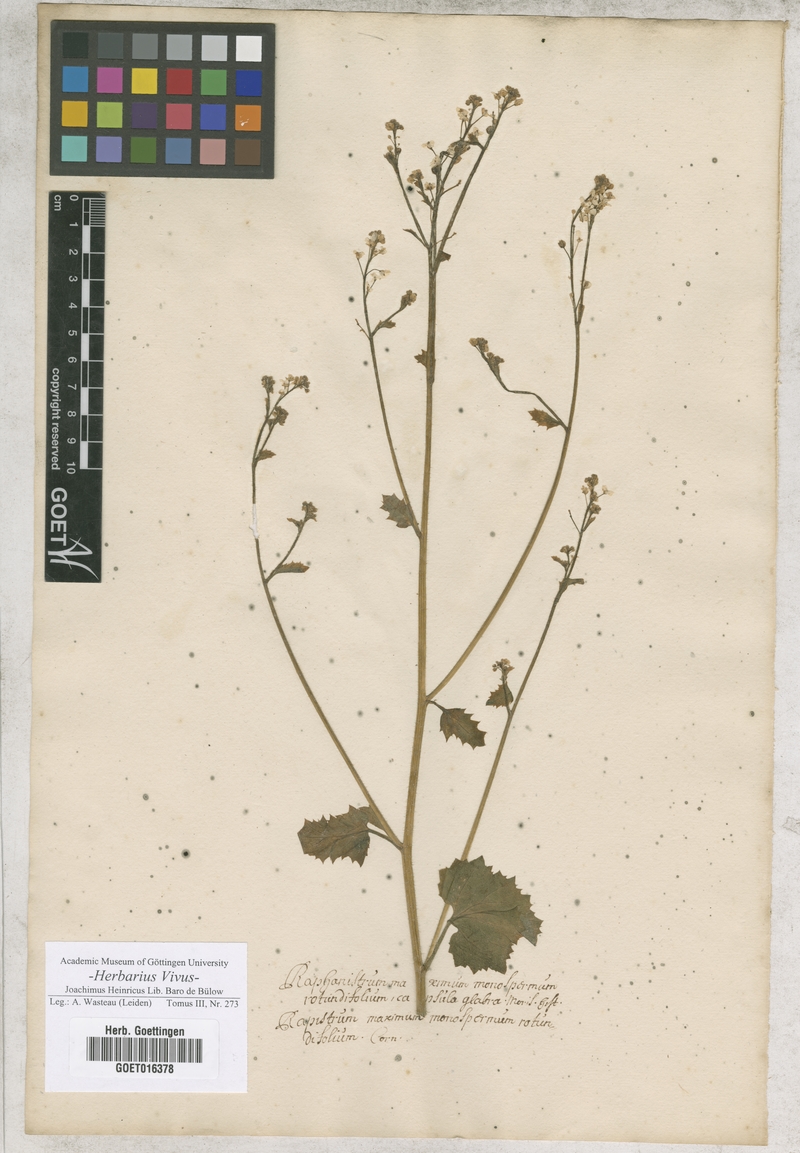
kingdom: Plantae
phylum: Tracheophyta
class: Magnoliopsida
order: Brassicales
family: Brassicaceae
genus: Crambe
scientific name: Crambe hispanica
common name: Abyssinian mustard
